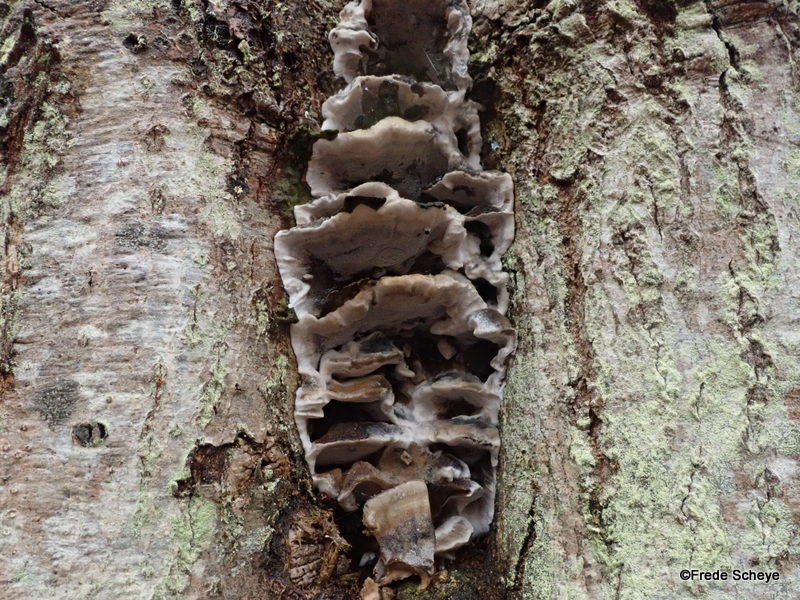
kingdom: Fungi
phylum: Basidiomycota
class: Agaricomycetes
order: Polyporales
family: Phanerochaetaceae
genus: Bjerkandera
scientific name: Bjerkandera adusta
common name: sveden sodporesvamp
